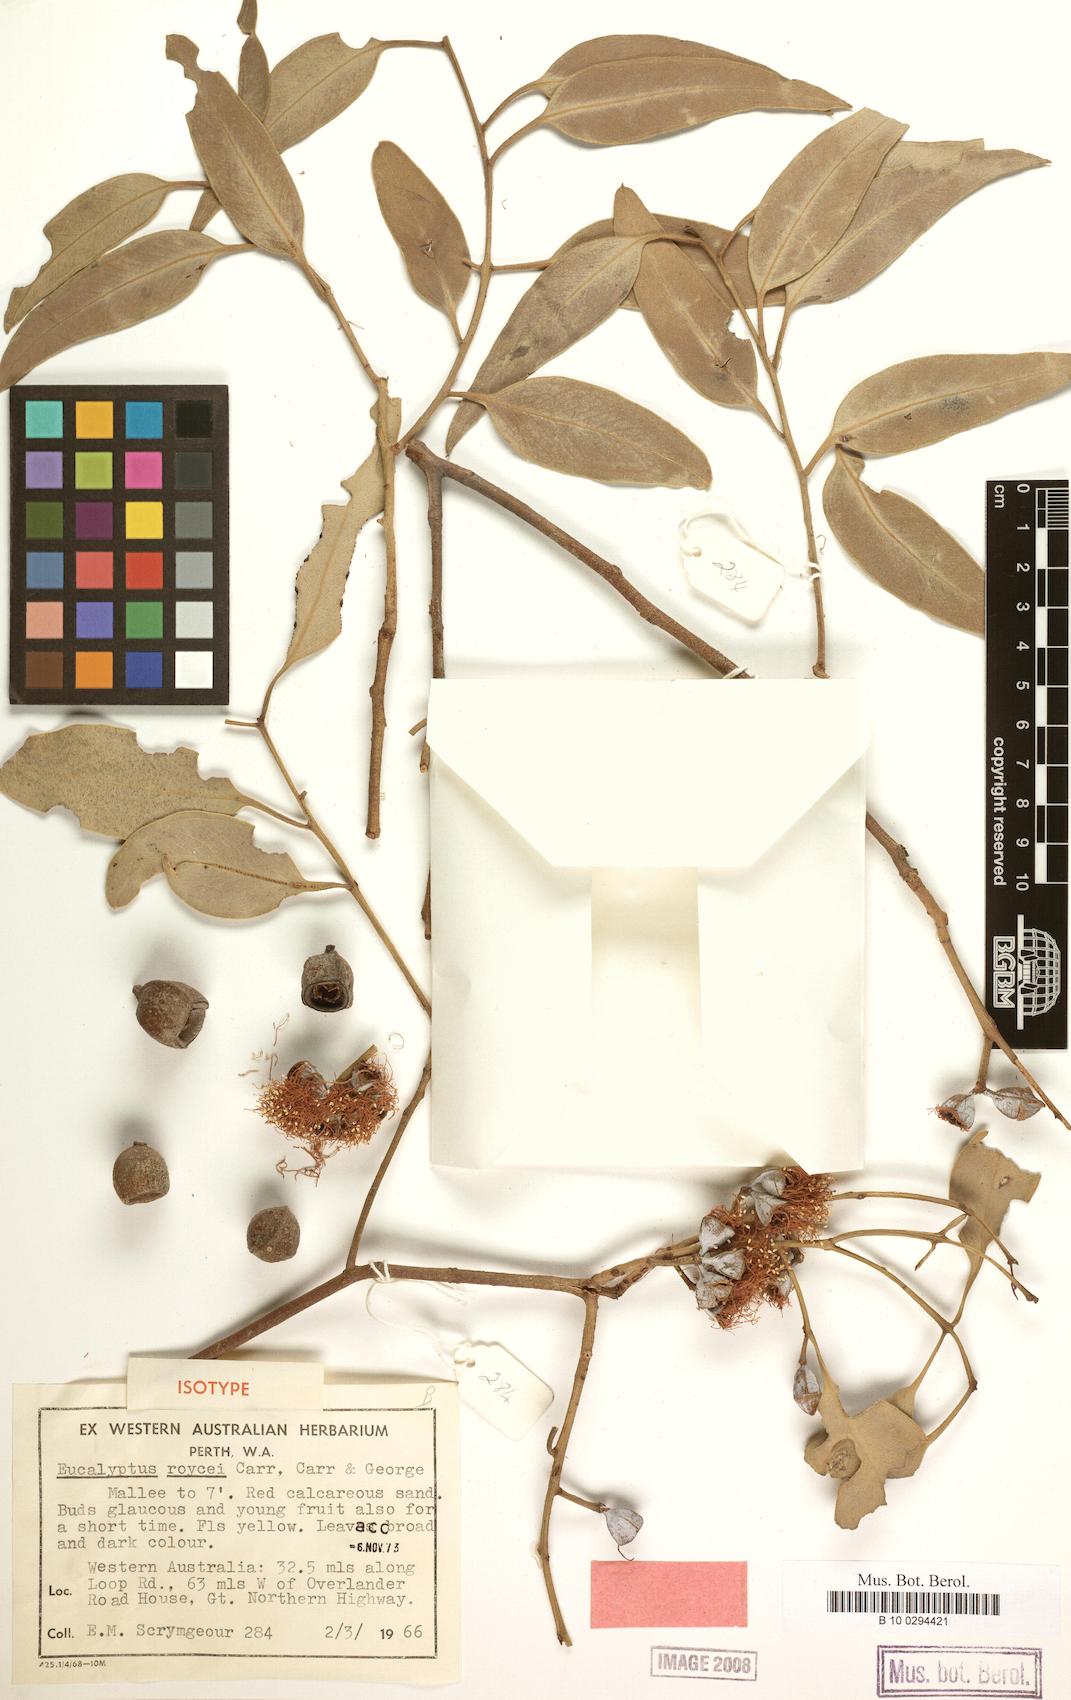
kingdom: Plantae
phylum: Tracheophyta
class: Magnoliopsida
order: Myrtales
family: Myrtaceae
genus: Eucalyptus
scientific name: Eucalyptus roycei
